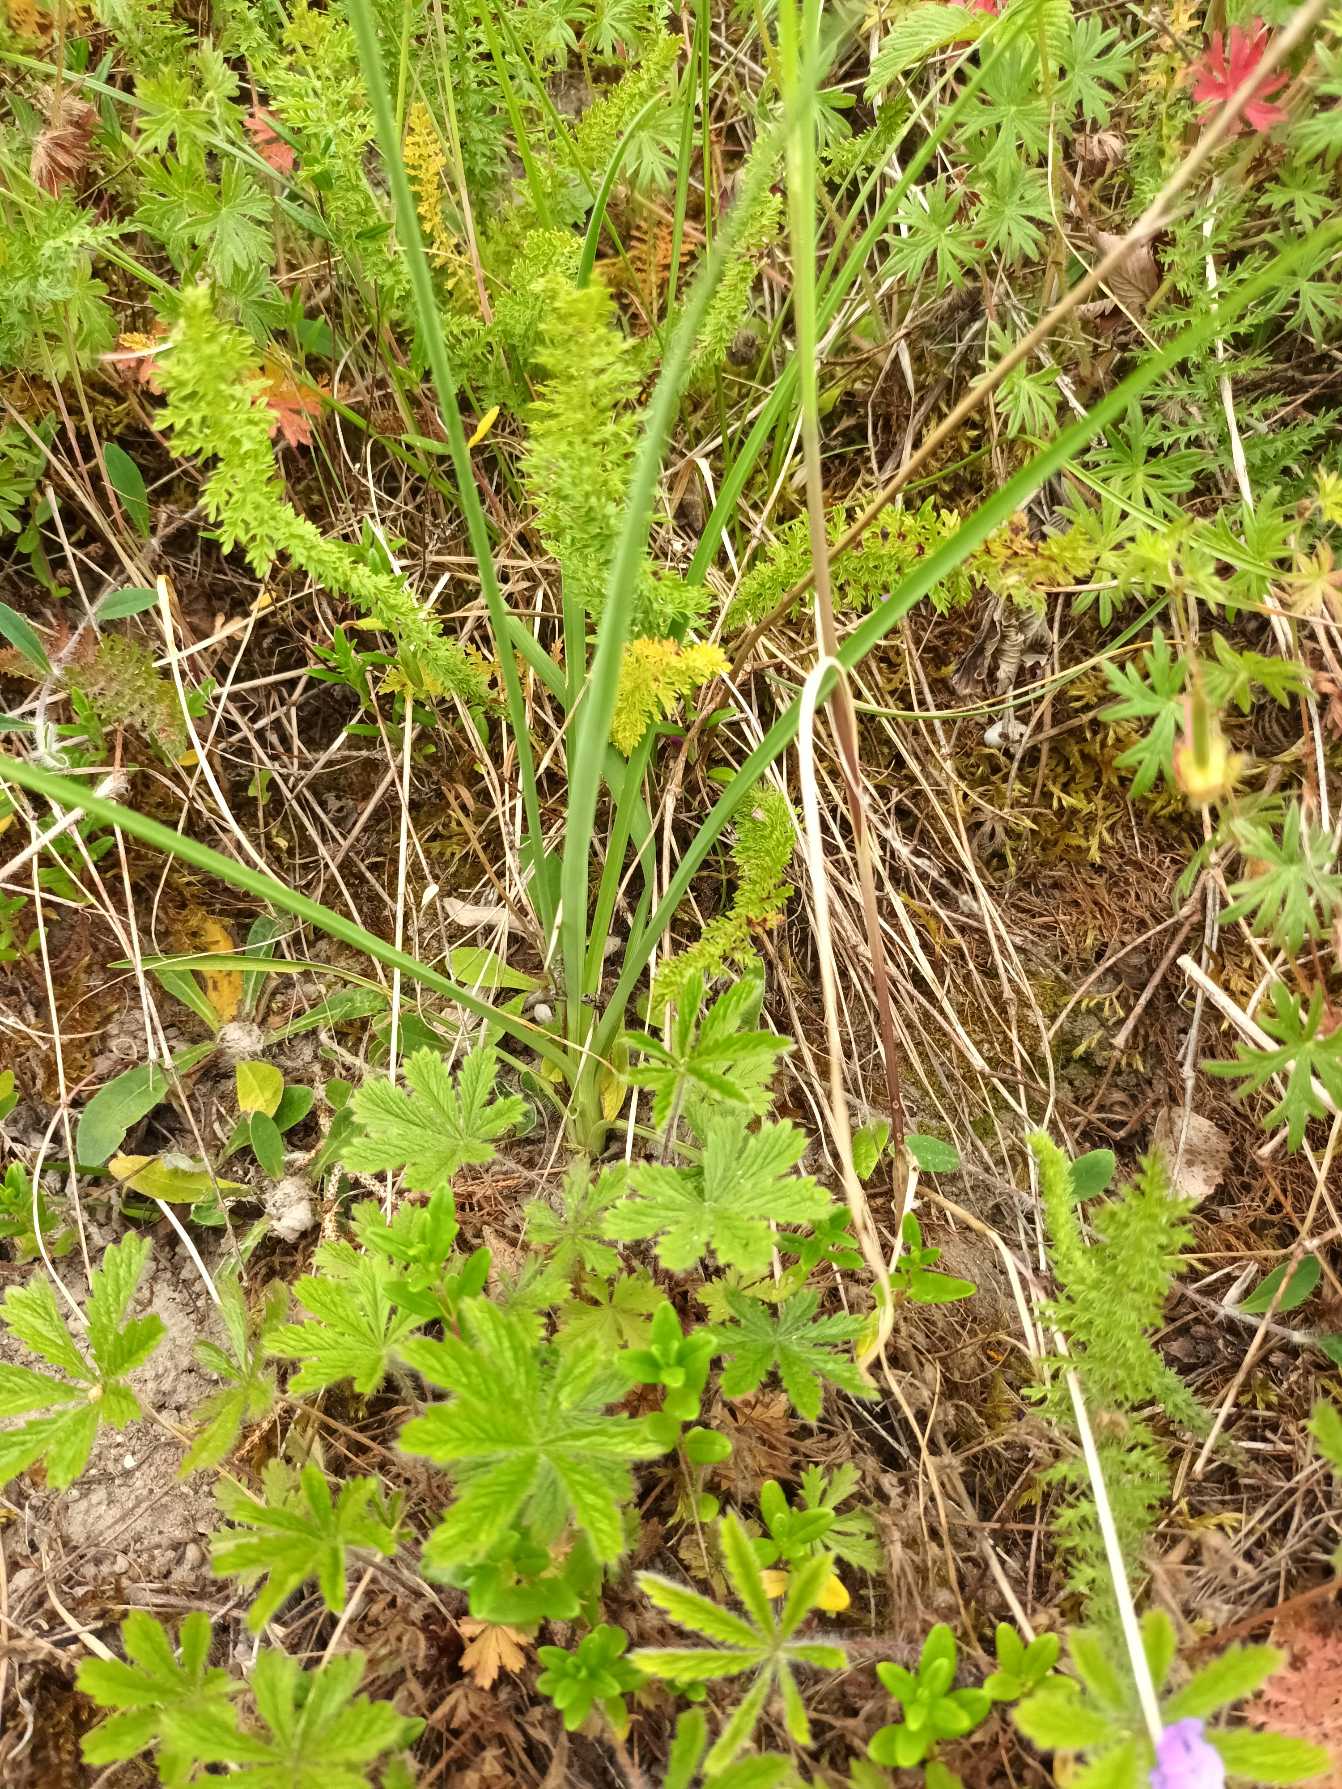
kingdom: Plantae
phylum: Tracheophyta
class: Liliopsida
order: Asparagales
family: Asparagaceae
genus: Anthericum
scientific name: Anthericum ramosum
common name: Grenet edderkopurt
